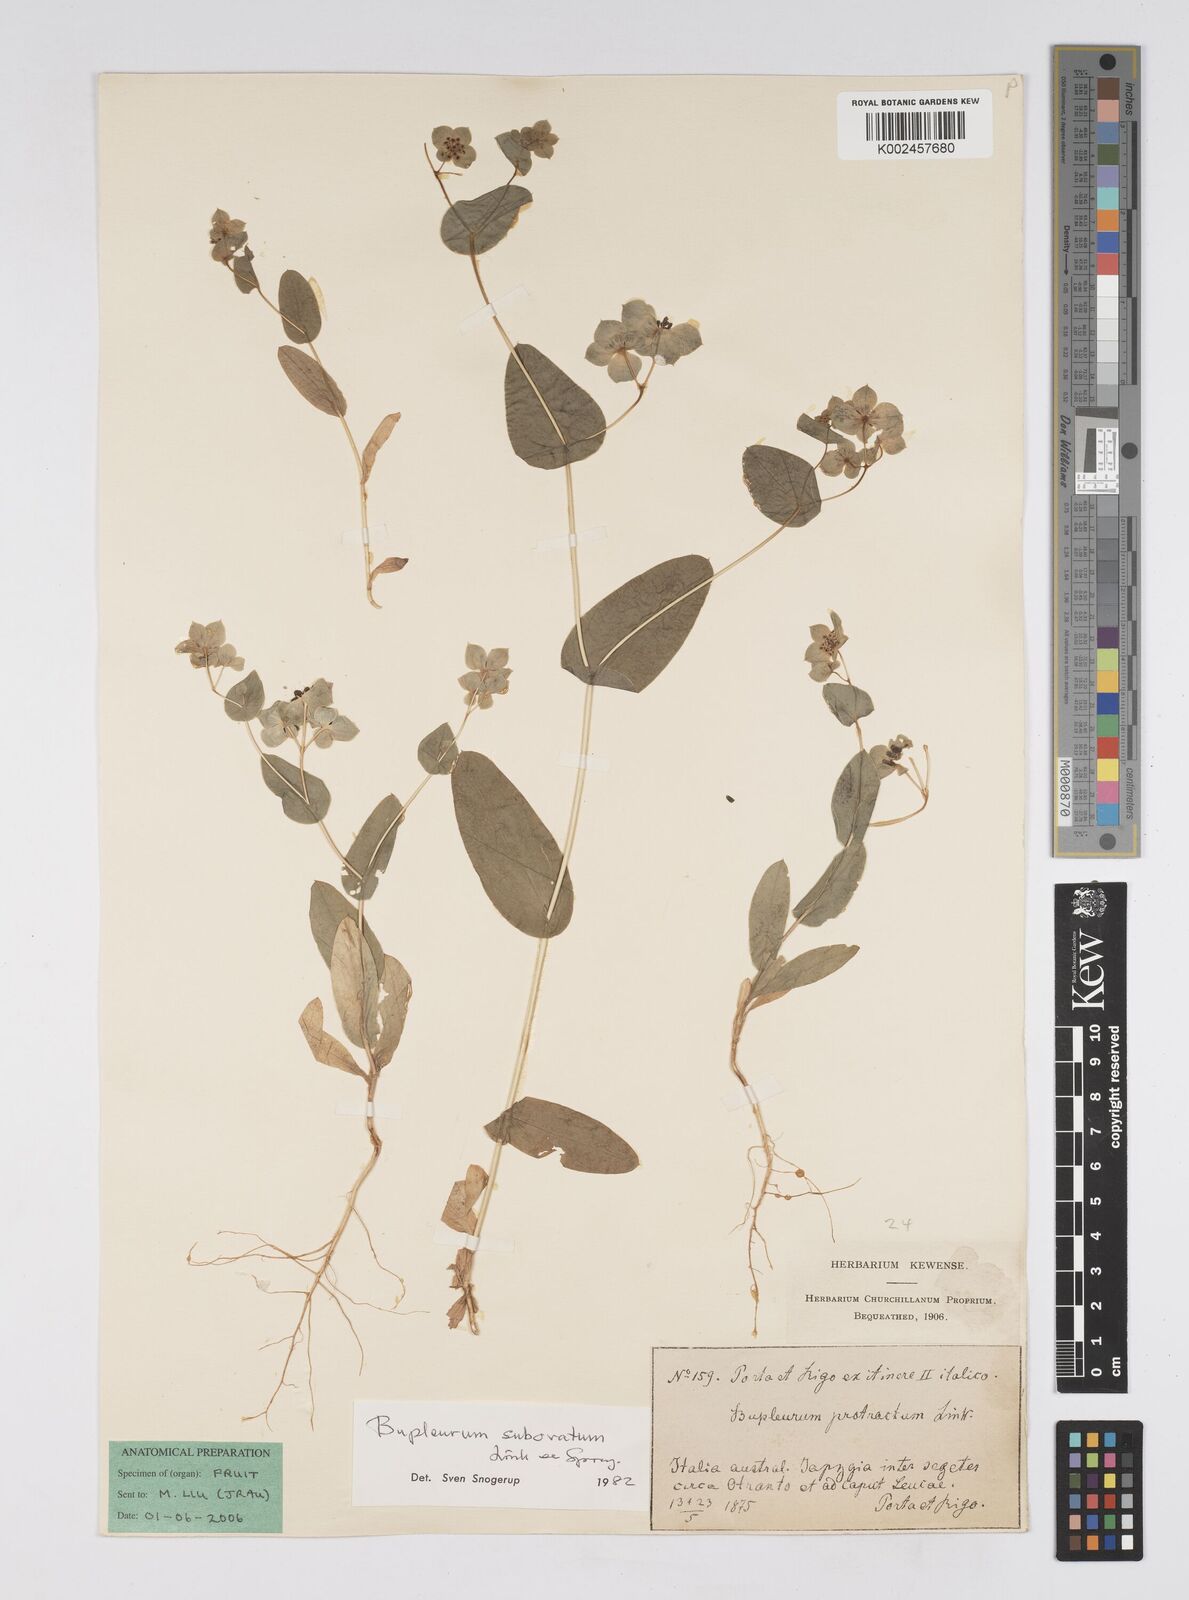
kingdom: Plantae
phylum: Tracheophyta
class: Magnoliopsida
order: Apiales
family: Apiaceae
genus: Bupleurum
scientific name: Bupleurum lancifolium
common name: False thorow-wax
